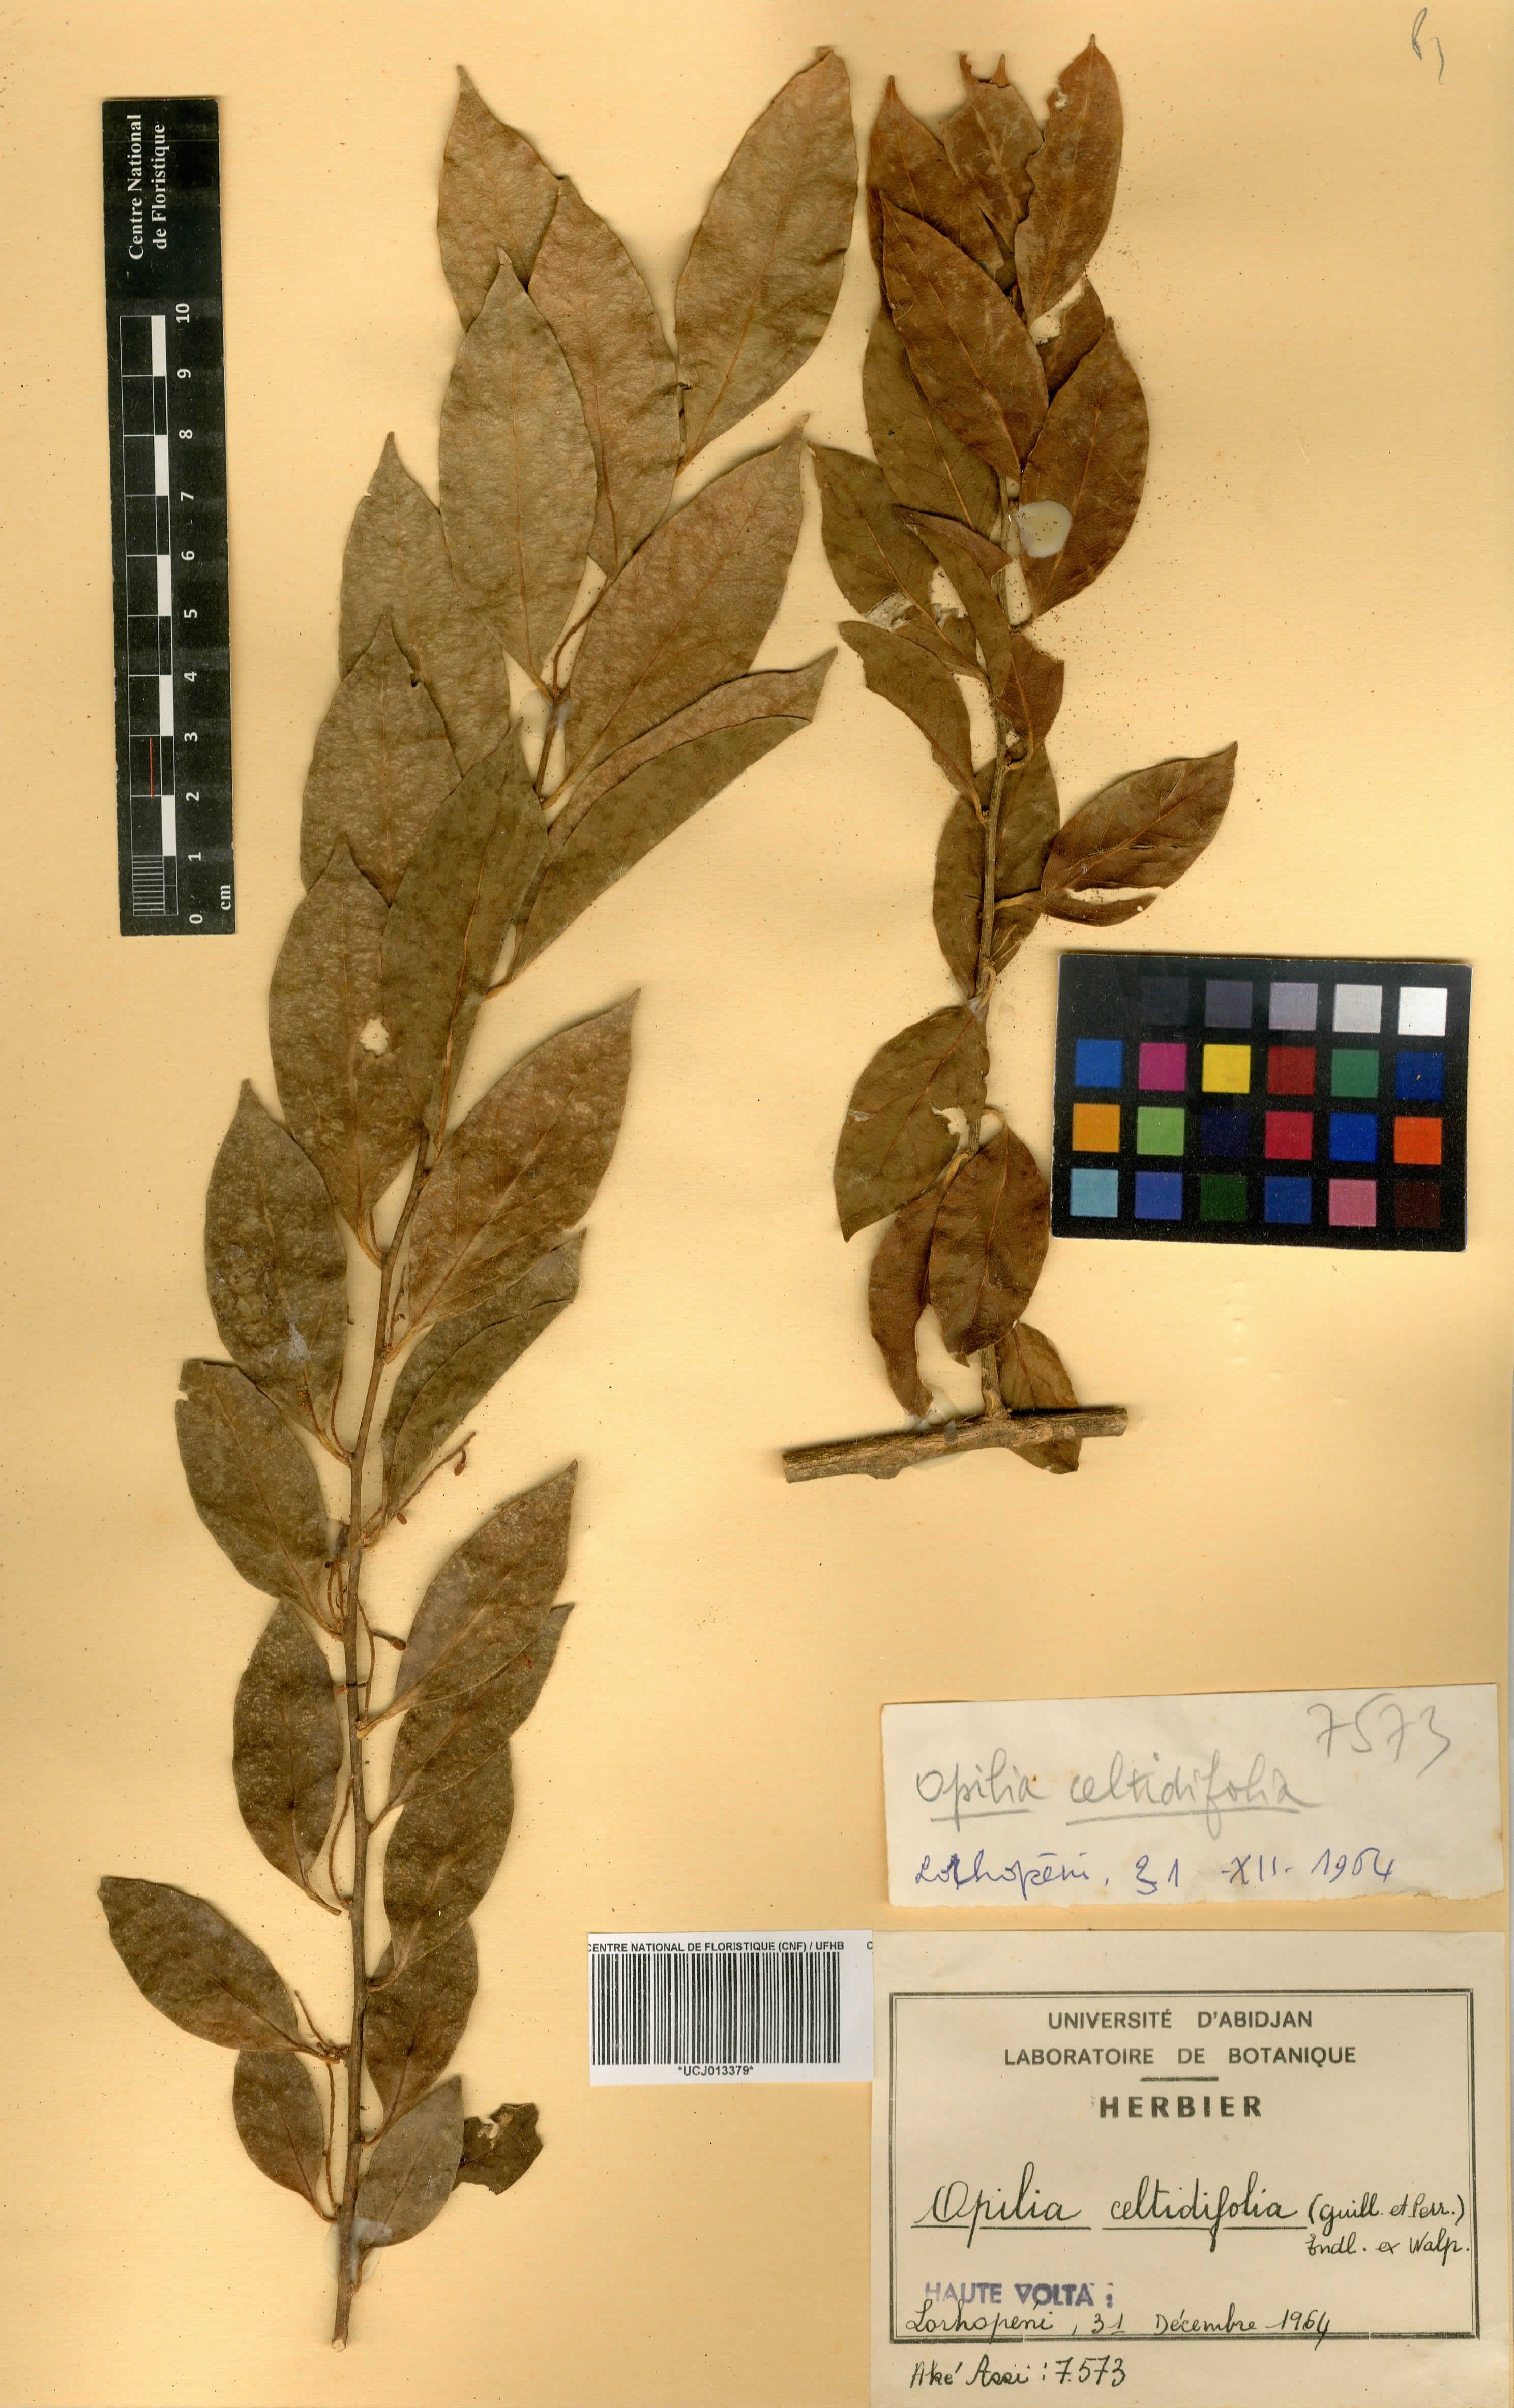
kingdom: Plantae
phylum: Tracheophyta
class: Magnoliopsida
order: Santalales
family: Opiliaceae
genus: Opilia
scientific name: Opilia amentacea
